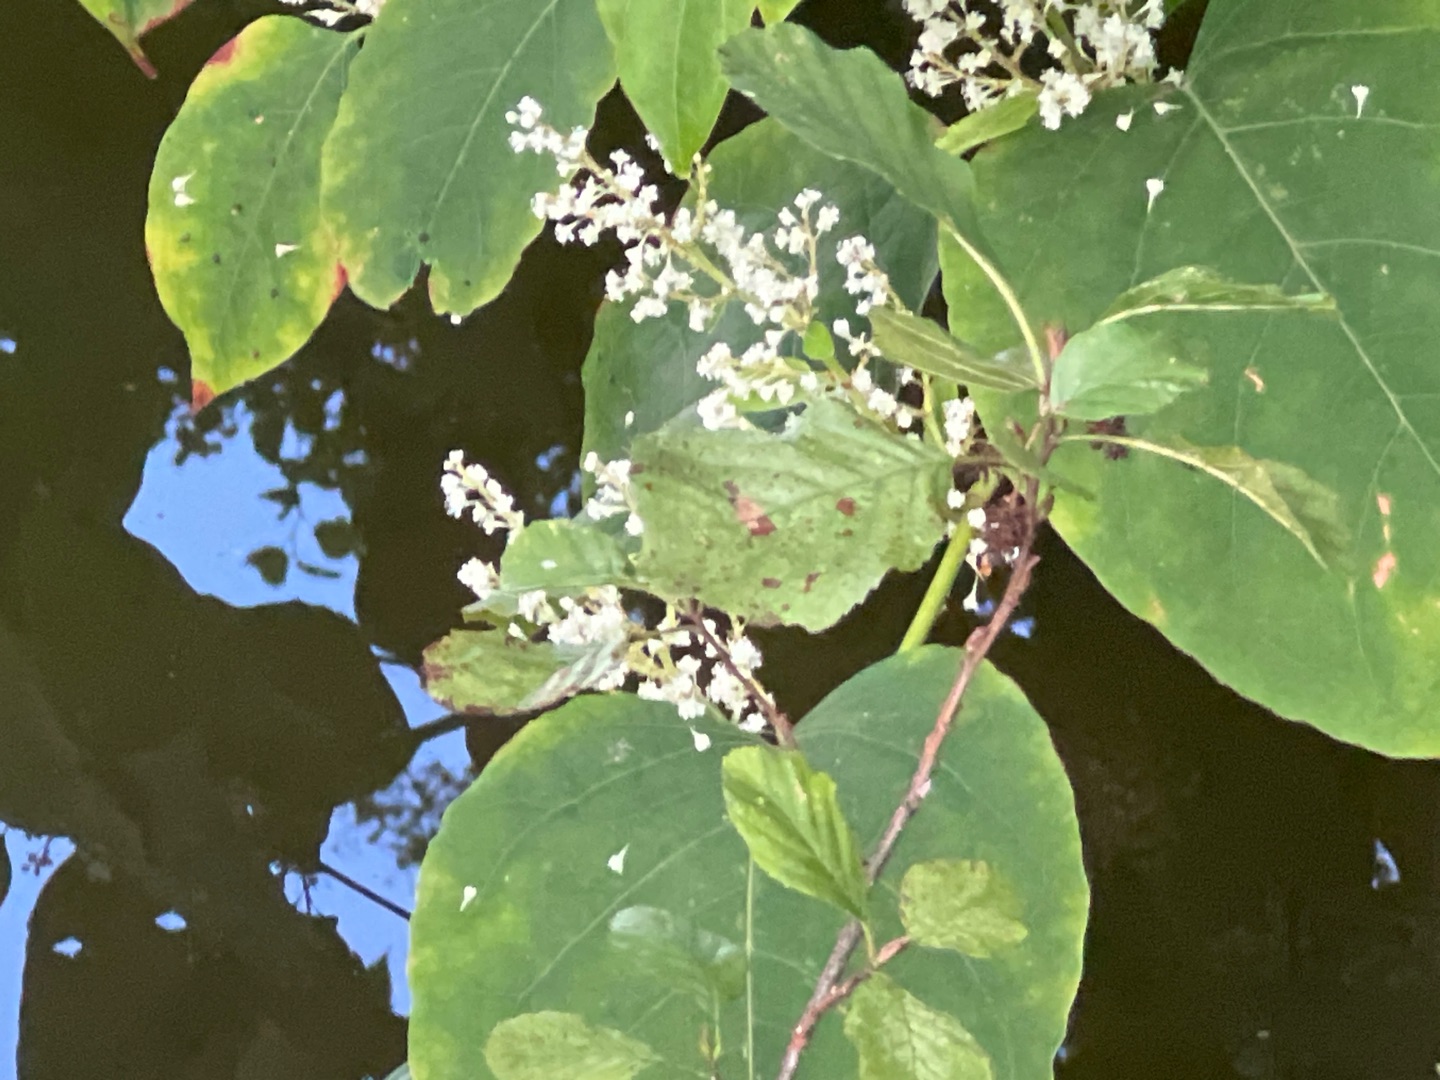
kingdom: Plantae
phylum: Tracheophyta
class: Magnoliopsida
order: Caryophyllales
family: Polygonaceae
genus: Reynoutria
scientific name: Reynoutria japonica
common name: Japan-pileurt
